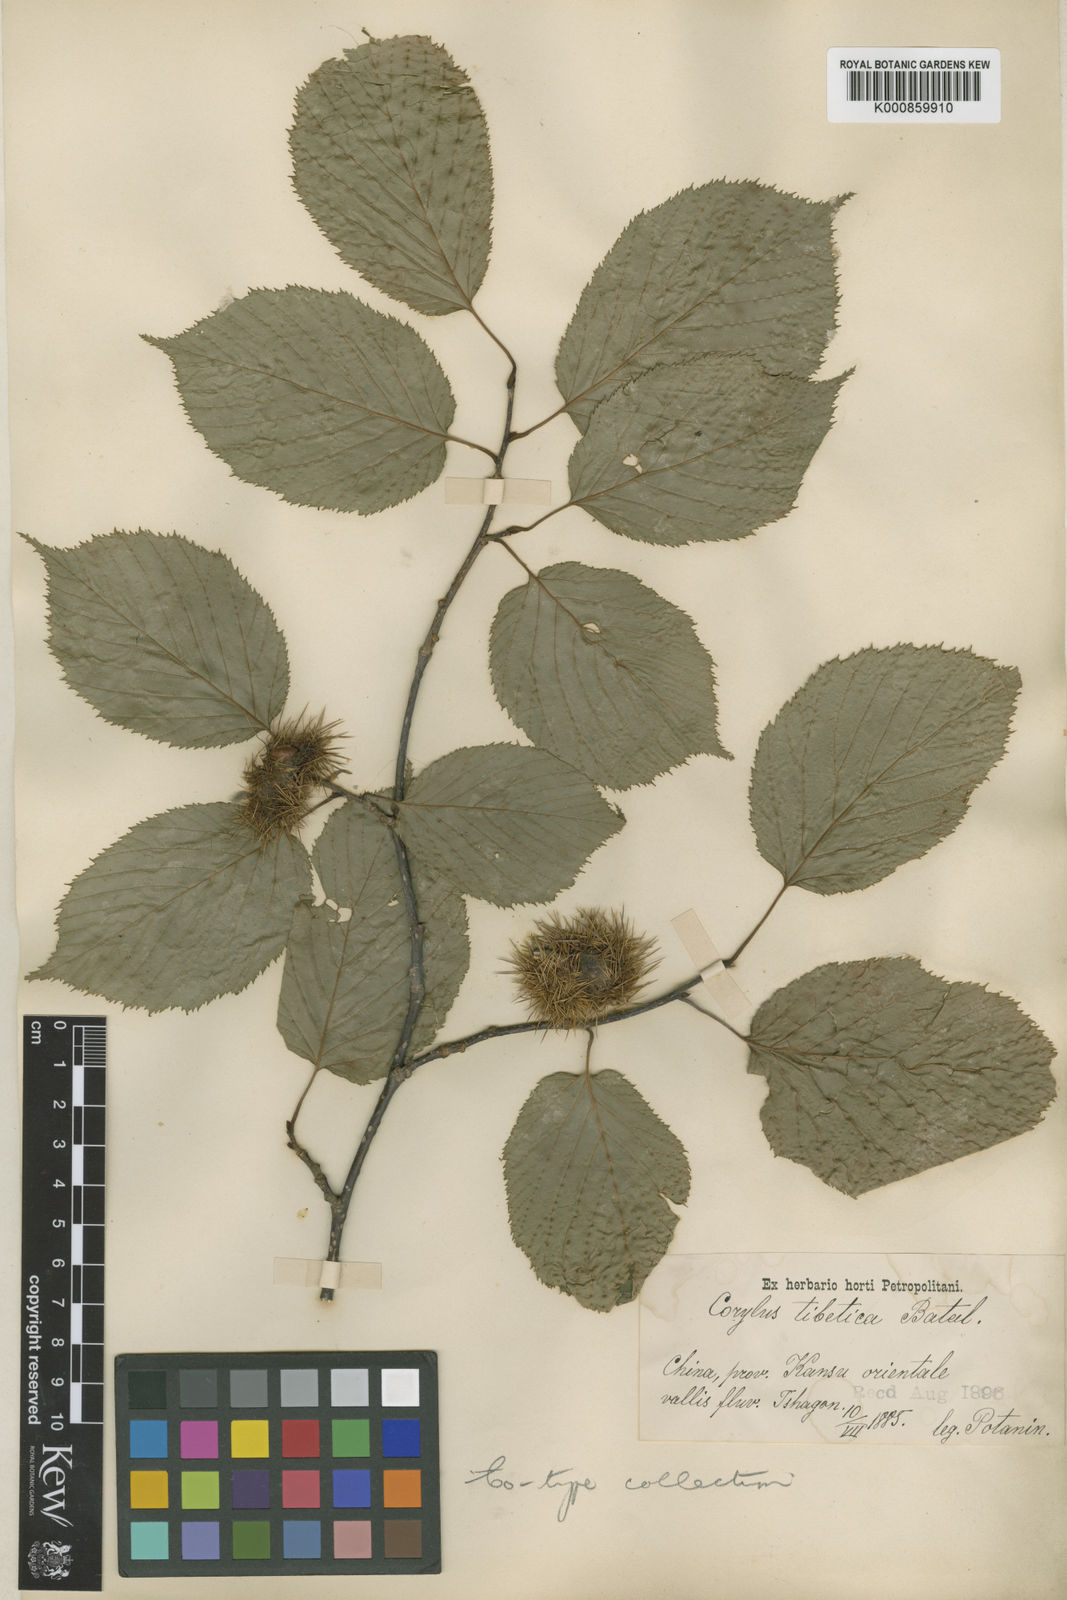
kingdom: Plantae
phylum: Tracheophyta
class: Magnoliopsida
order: Fagales
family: Betulaceae
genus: Corylus
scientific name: Corylus ferox
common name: Himalayan hazel
